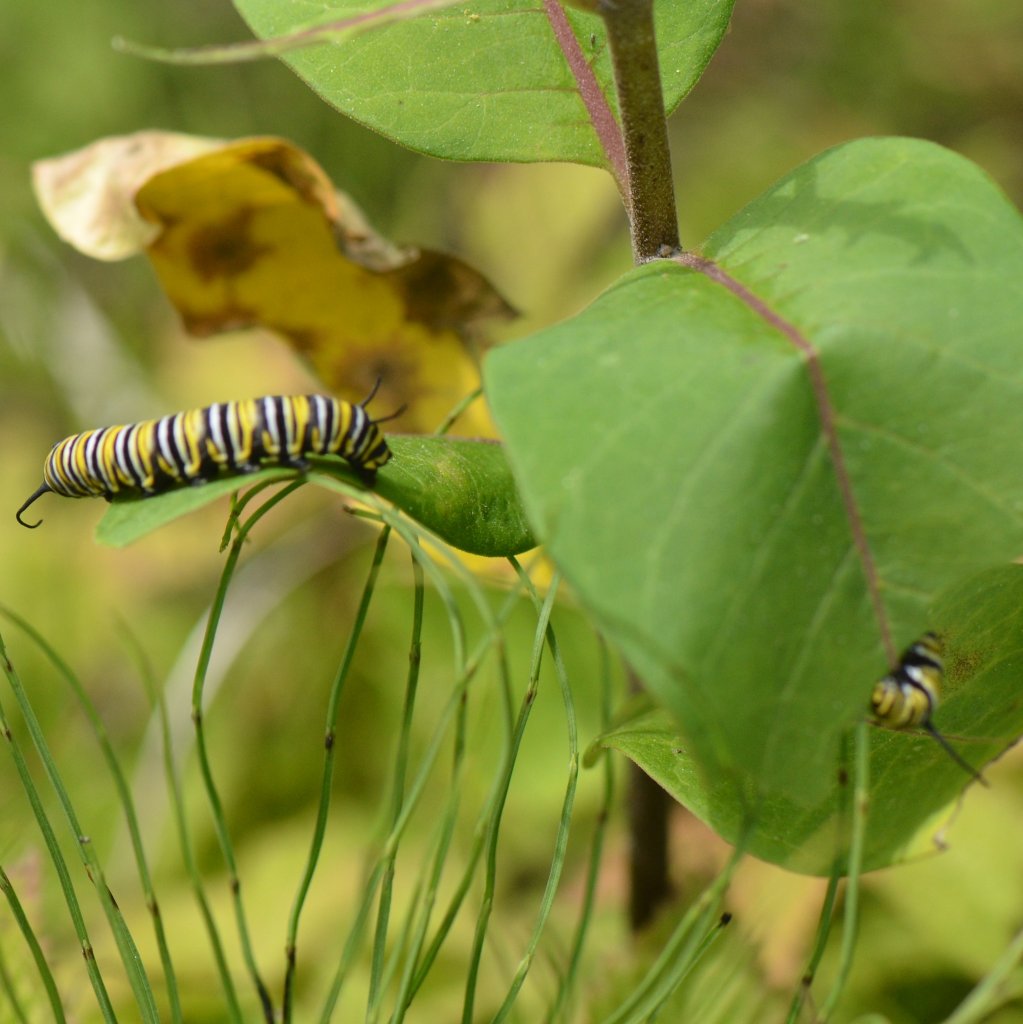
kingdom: Animalia
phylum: Arthropoda
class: Insecta
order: Lepidoptera
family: Nymphalidae
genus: Danaus
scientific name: Danaus plexippus
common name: Monarch
